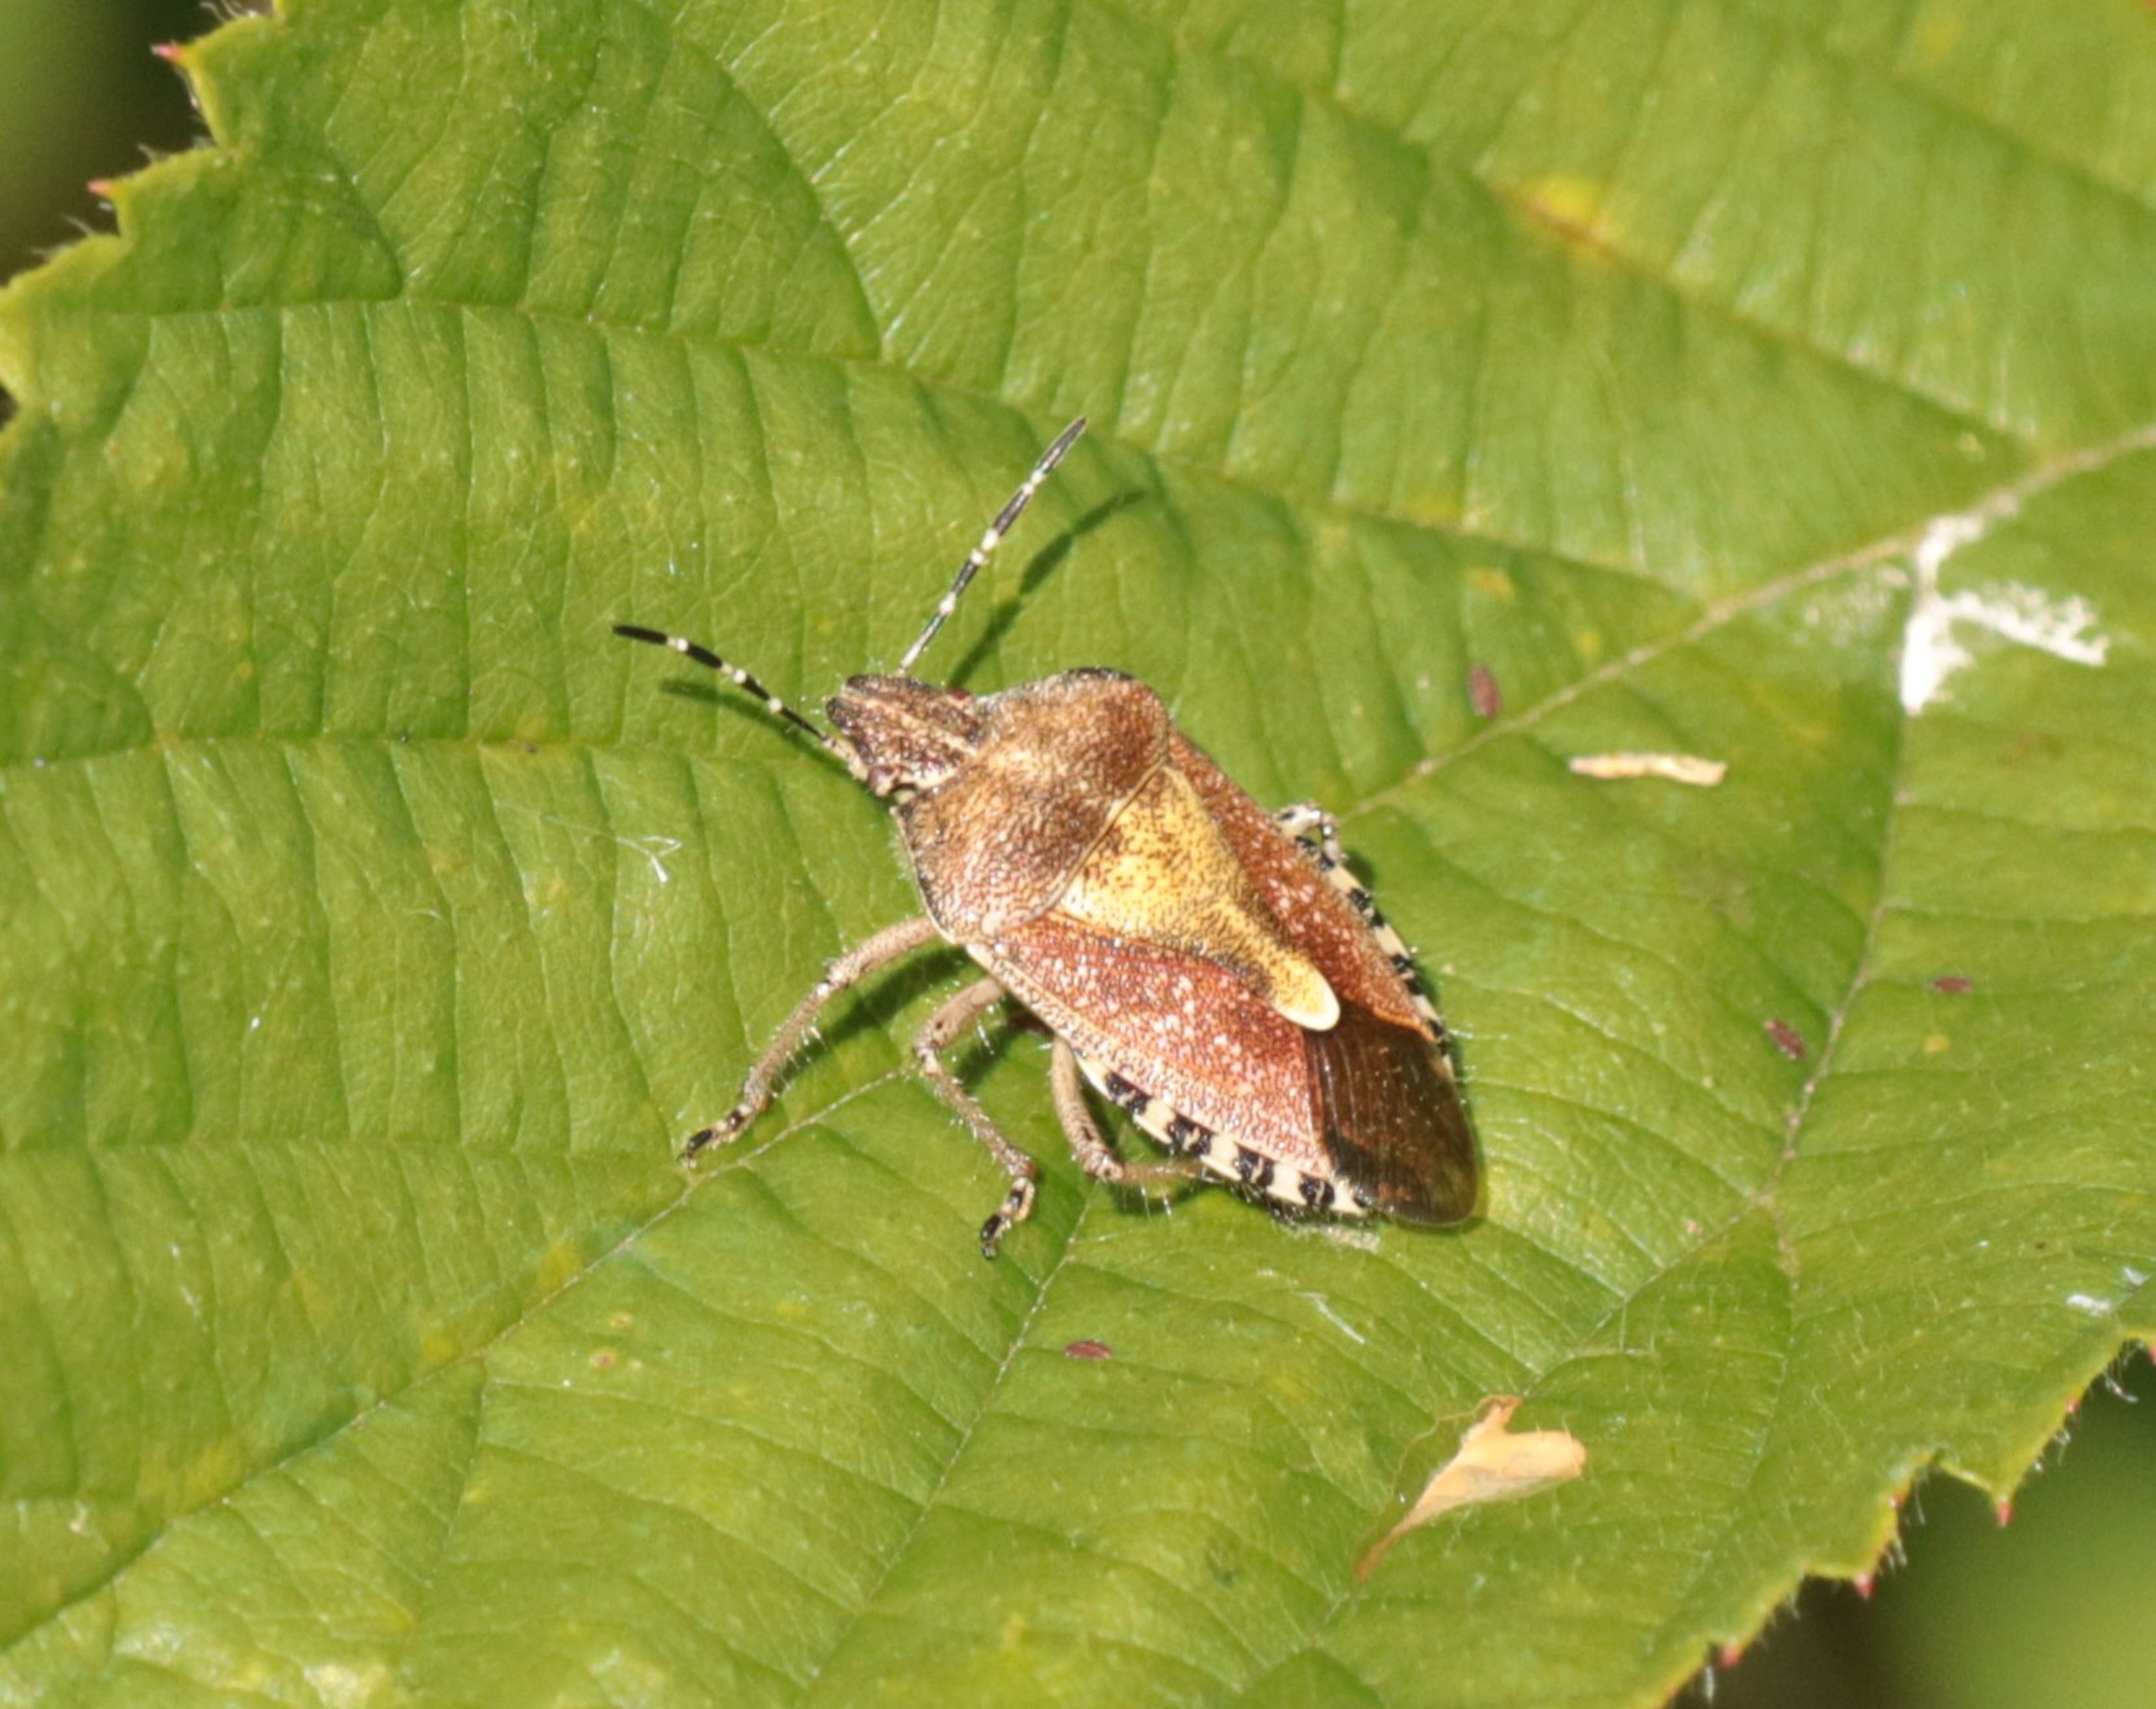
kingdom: Animalia
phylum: Arthropoda
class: Insecta
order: Hemiptera
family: Pentatomidae
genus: Dolycoris
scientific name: Dolycoris baccarum
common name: Almindelig bærtæge
